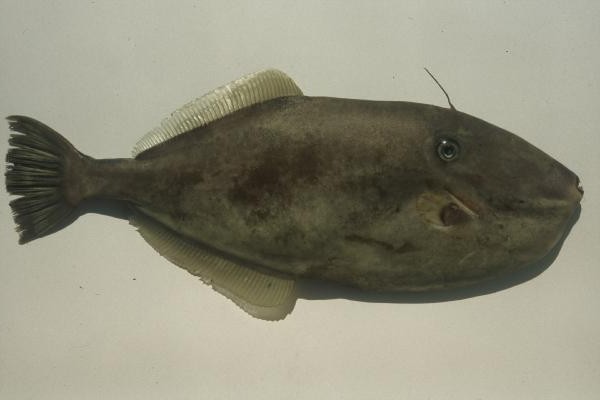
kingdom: Animalia
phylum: Chordata
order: Tetraodontiformes
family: Monacanthidae
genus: Aluterus
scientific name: Aluterus monoceros
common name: Batfish
